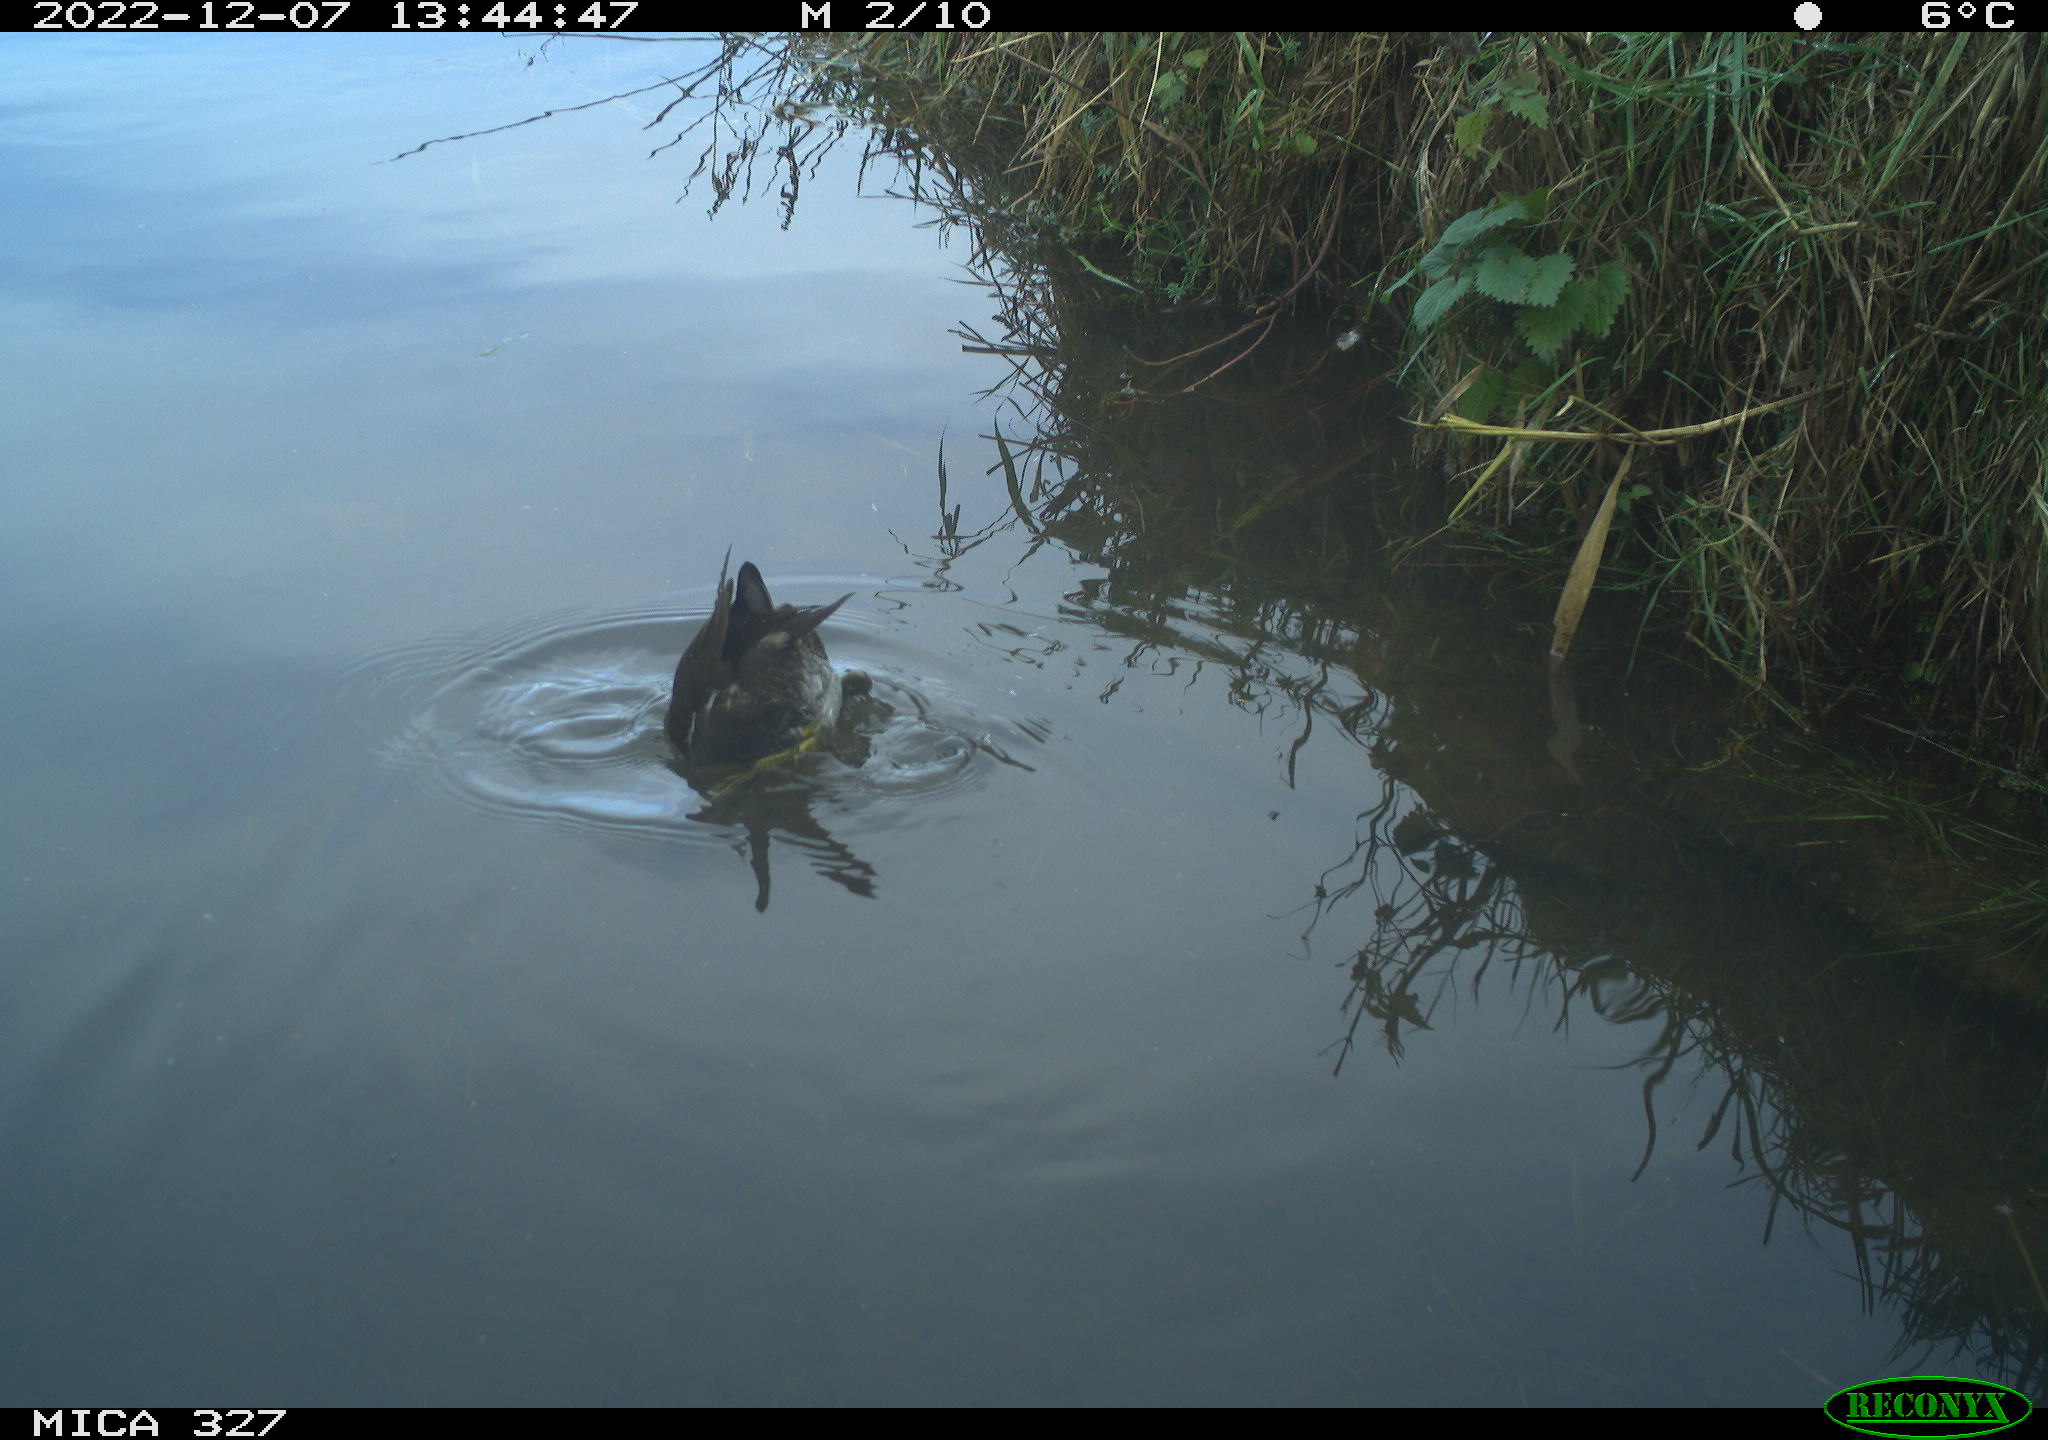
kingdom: Animalia
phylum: Chordata
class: Aves
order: Gruiformes
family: Rallidae
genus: Gallinula
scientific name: Gallinula chloropus
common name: Common moorhen
